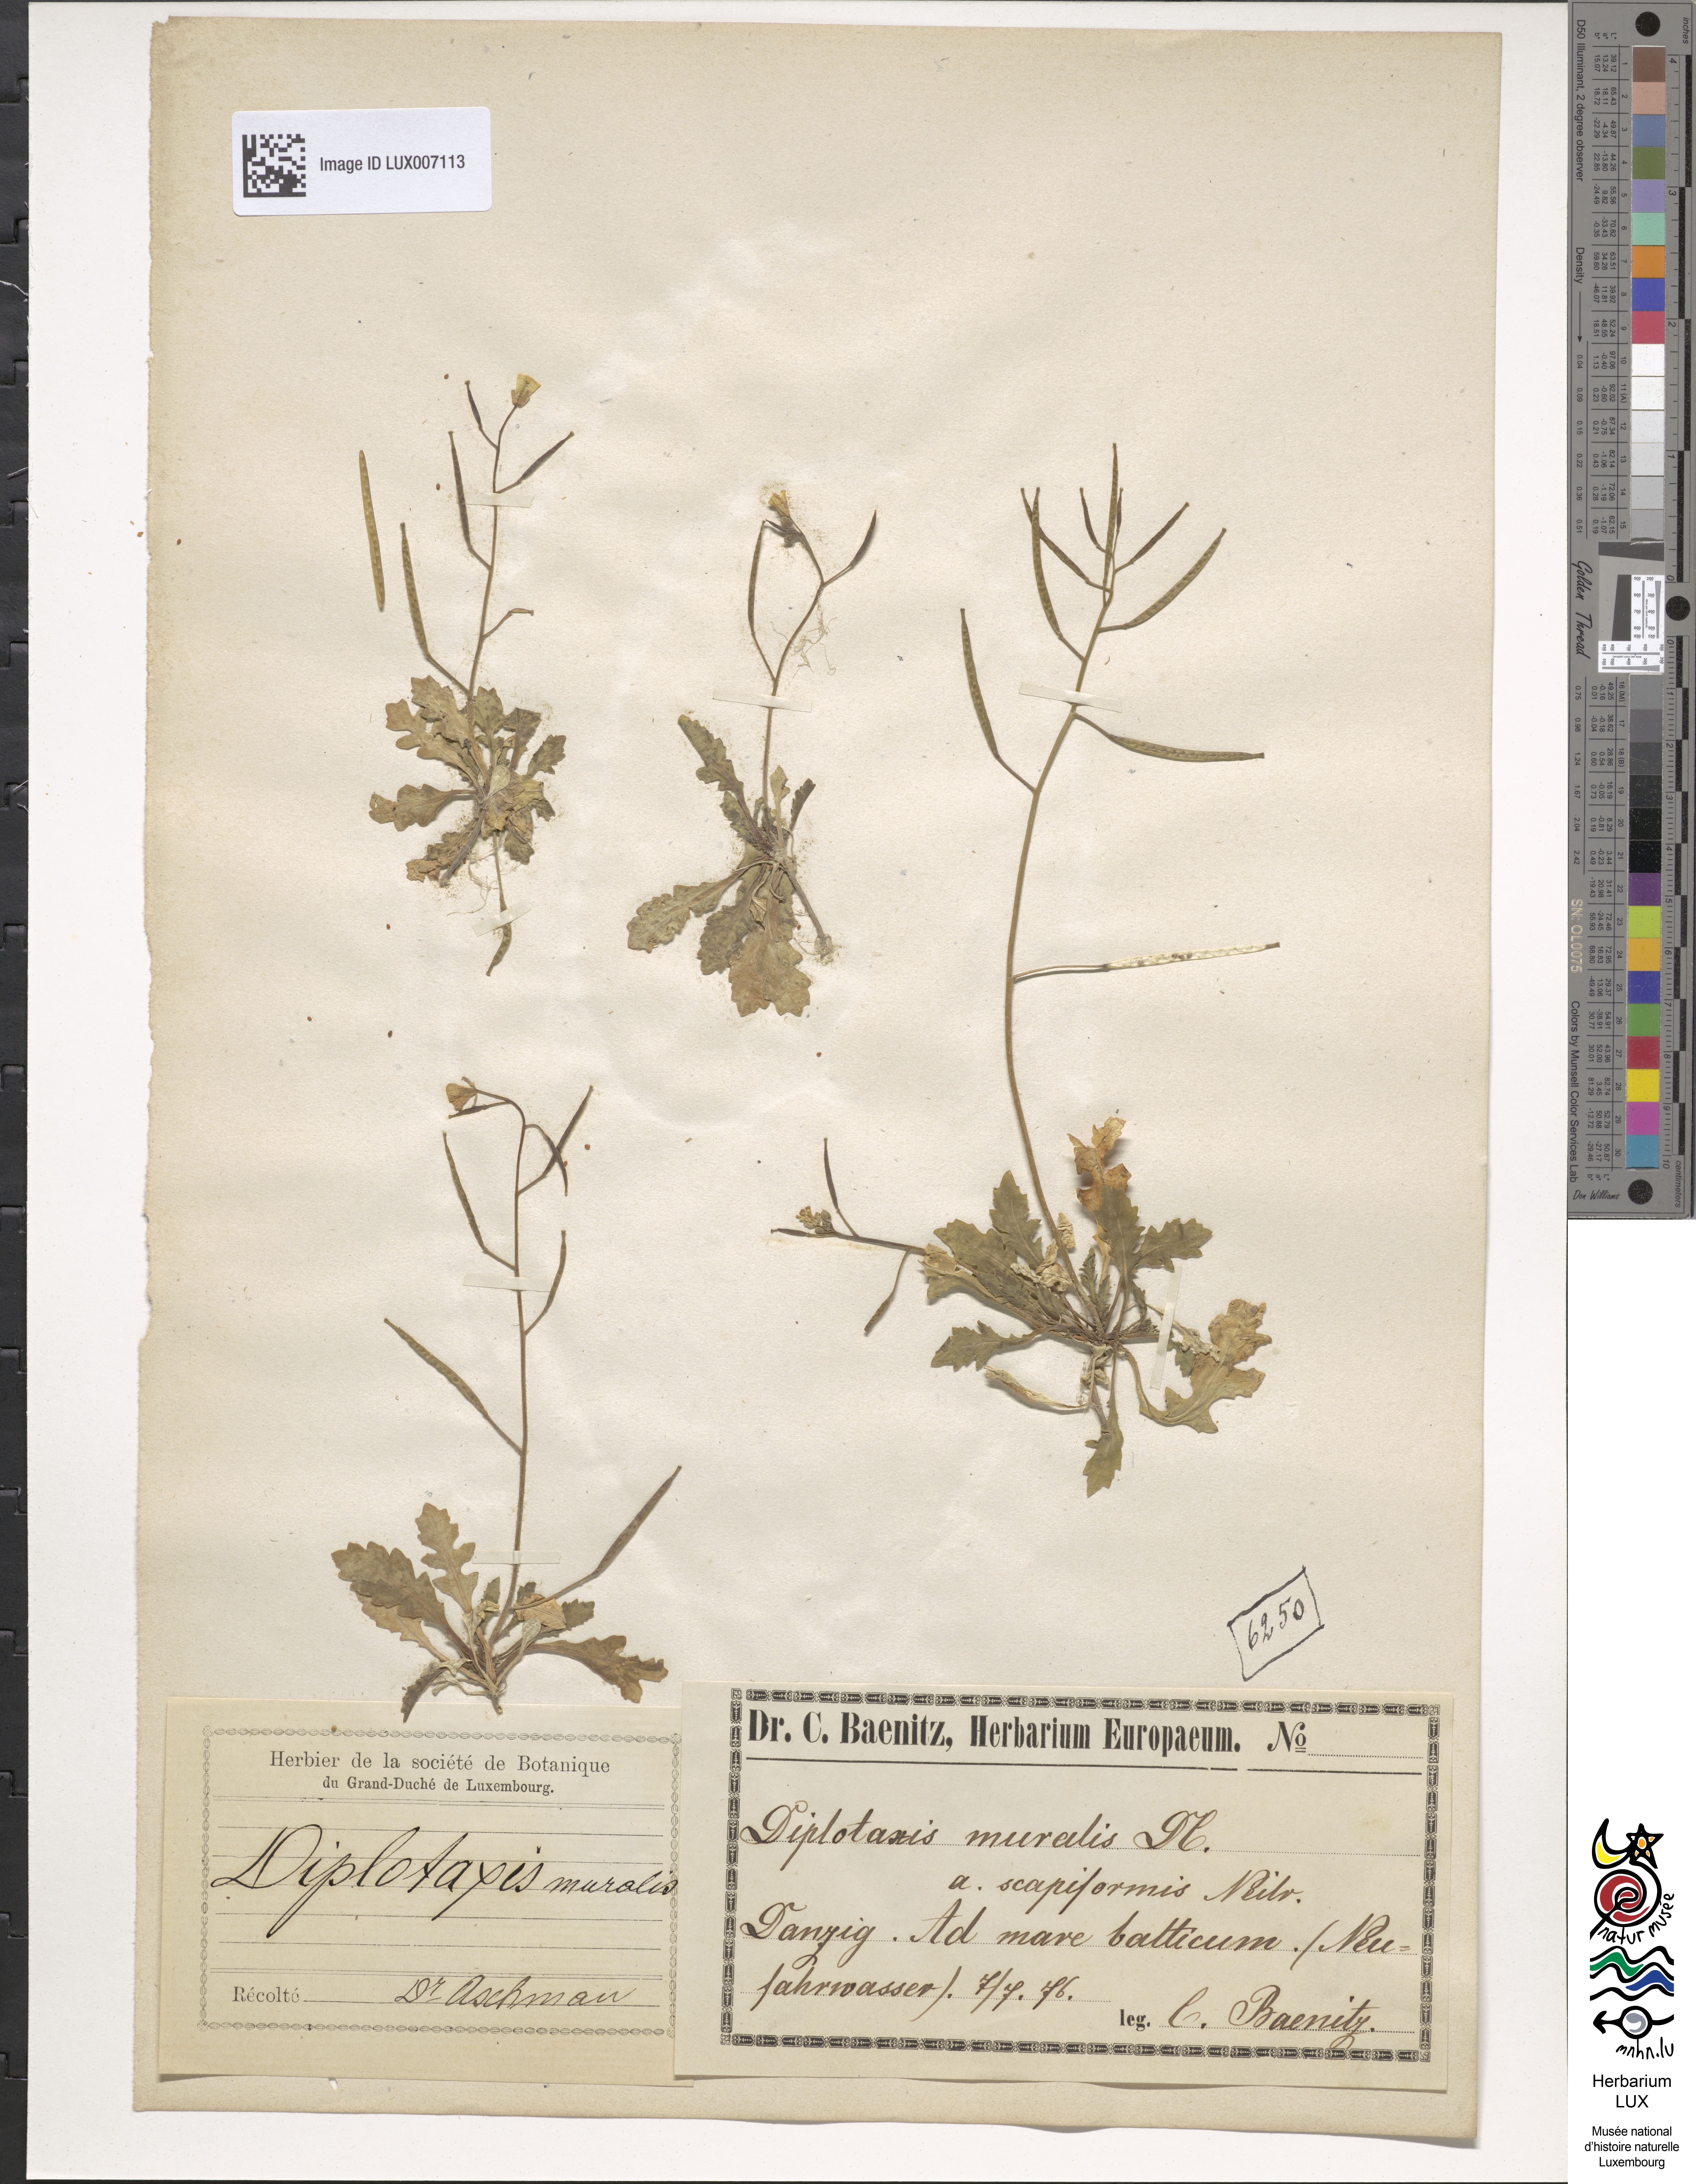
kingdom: Plantae
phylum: Tracheophyta
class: Magnoliopsida
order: Brassicales
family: Brassicaceae
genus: Diplotaxis
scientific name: Diplotaxis muralis
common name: Annual wall-rocket
